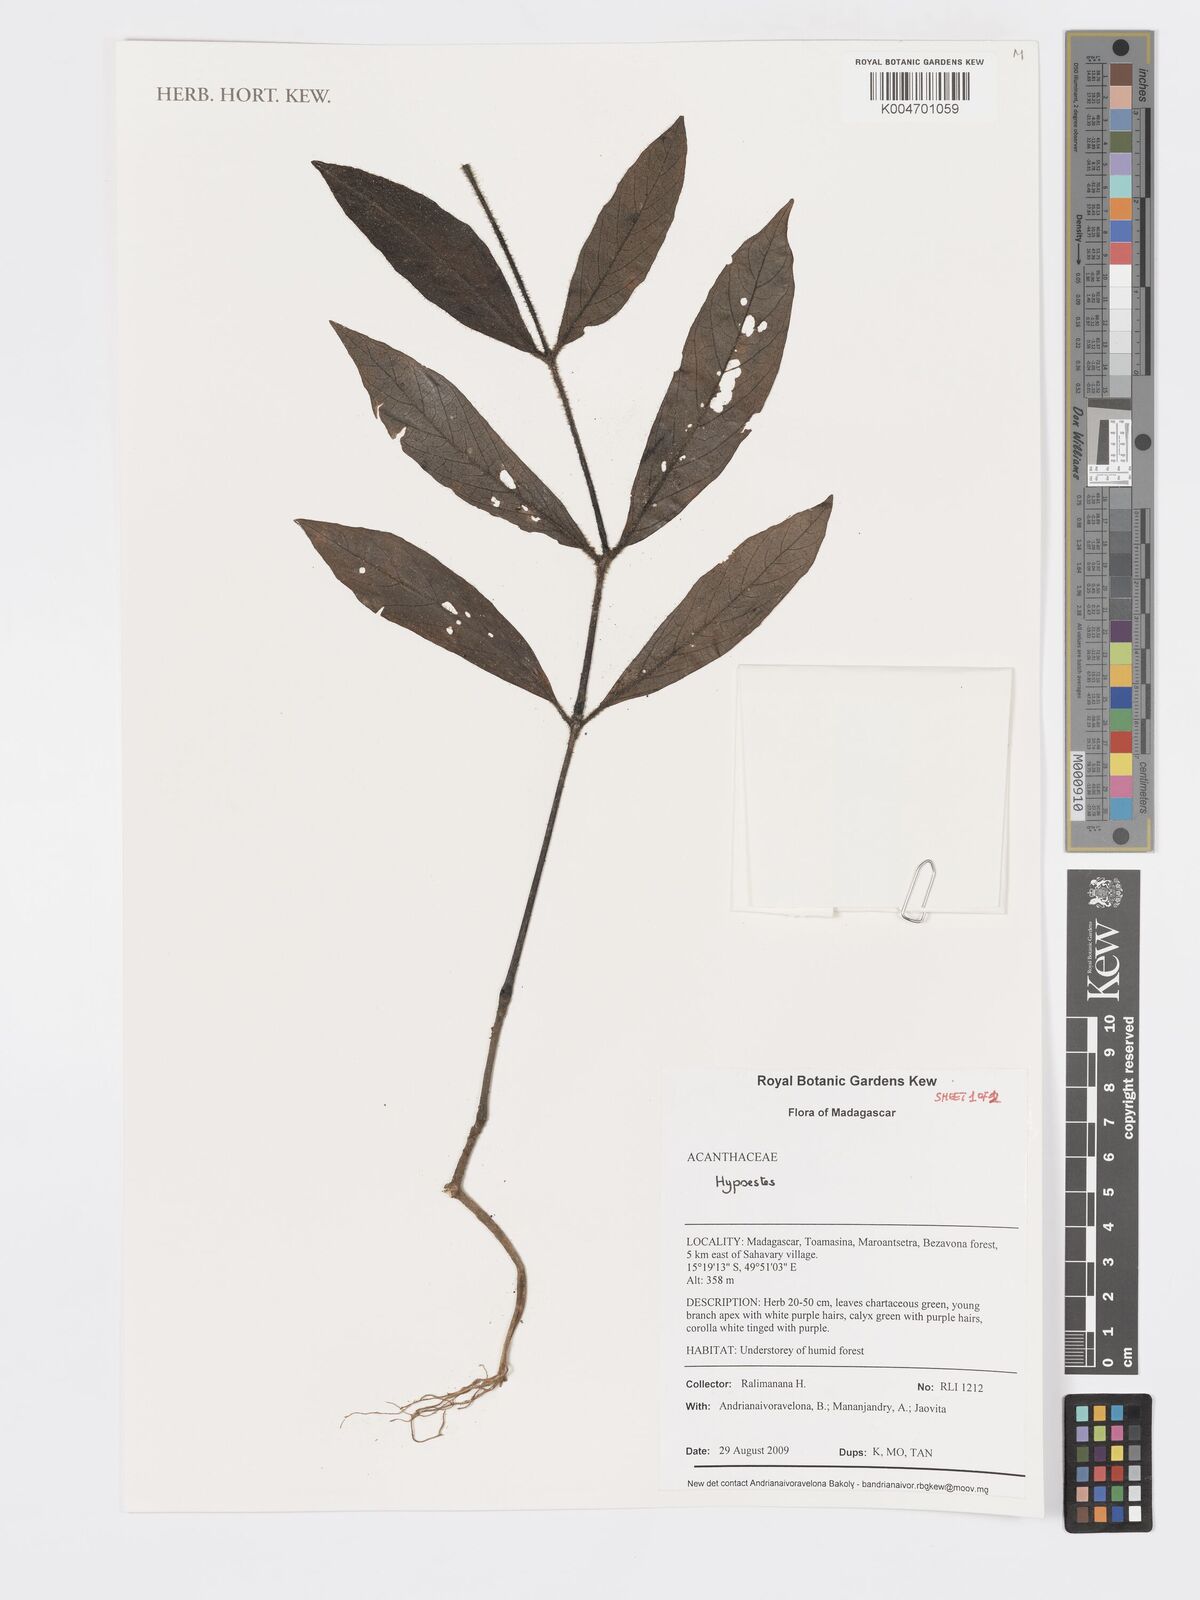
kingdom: Plantae
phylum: Tracheophyta
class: Magnoliopsida
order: Lamiales
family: Acanthaceae
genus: Hypoestes
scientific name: Hypoestes
